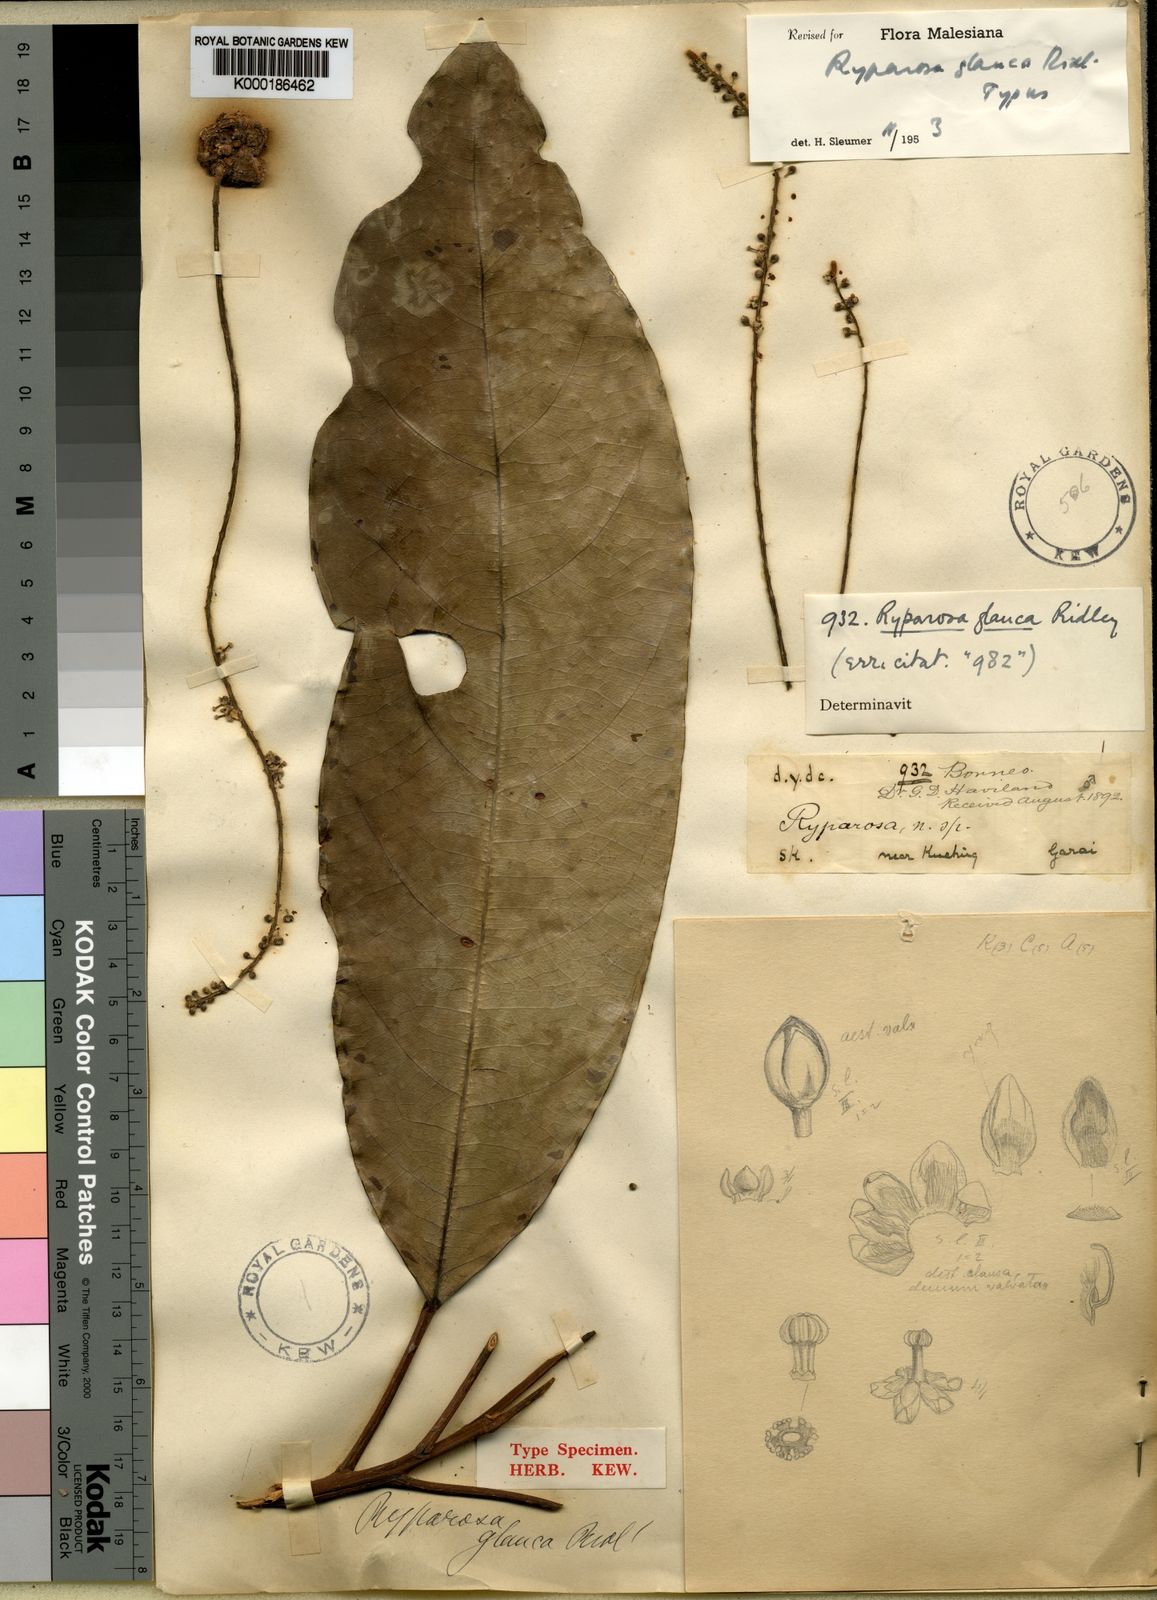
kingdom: Plantae
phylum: Tracheophyta
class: Magnoliopsida
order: Malpighiales
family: Achariaceae
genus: Ryparosa
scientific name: Ryparosa glauca
